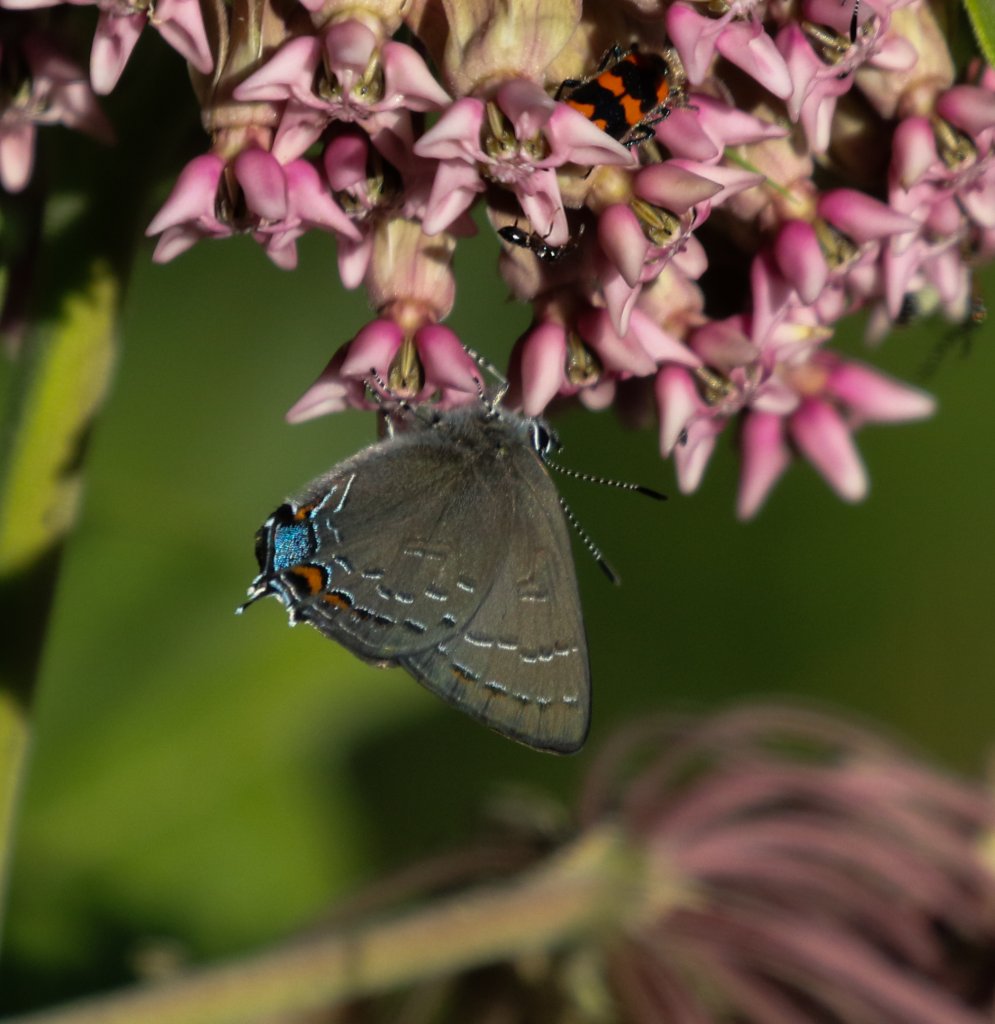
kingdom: Animalia
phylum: Arthropoda
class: Insecta
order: Lepidoptera
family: Lycaenidae
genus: Satyrium
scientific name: Satyrium calanus
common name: Banded Hairstreak
